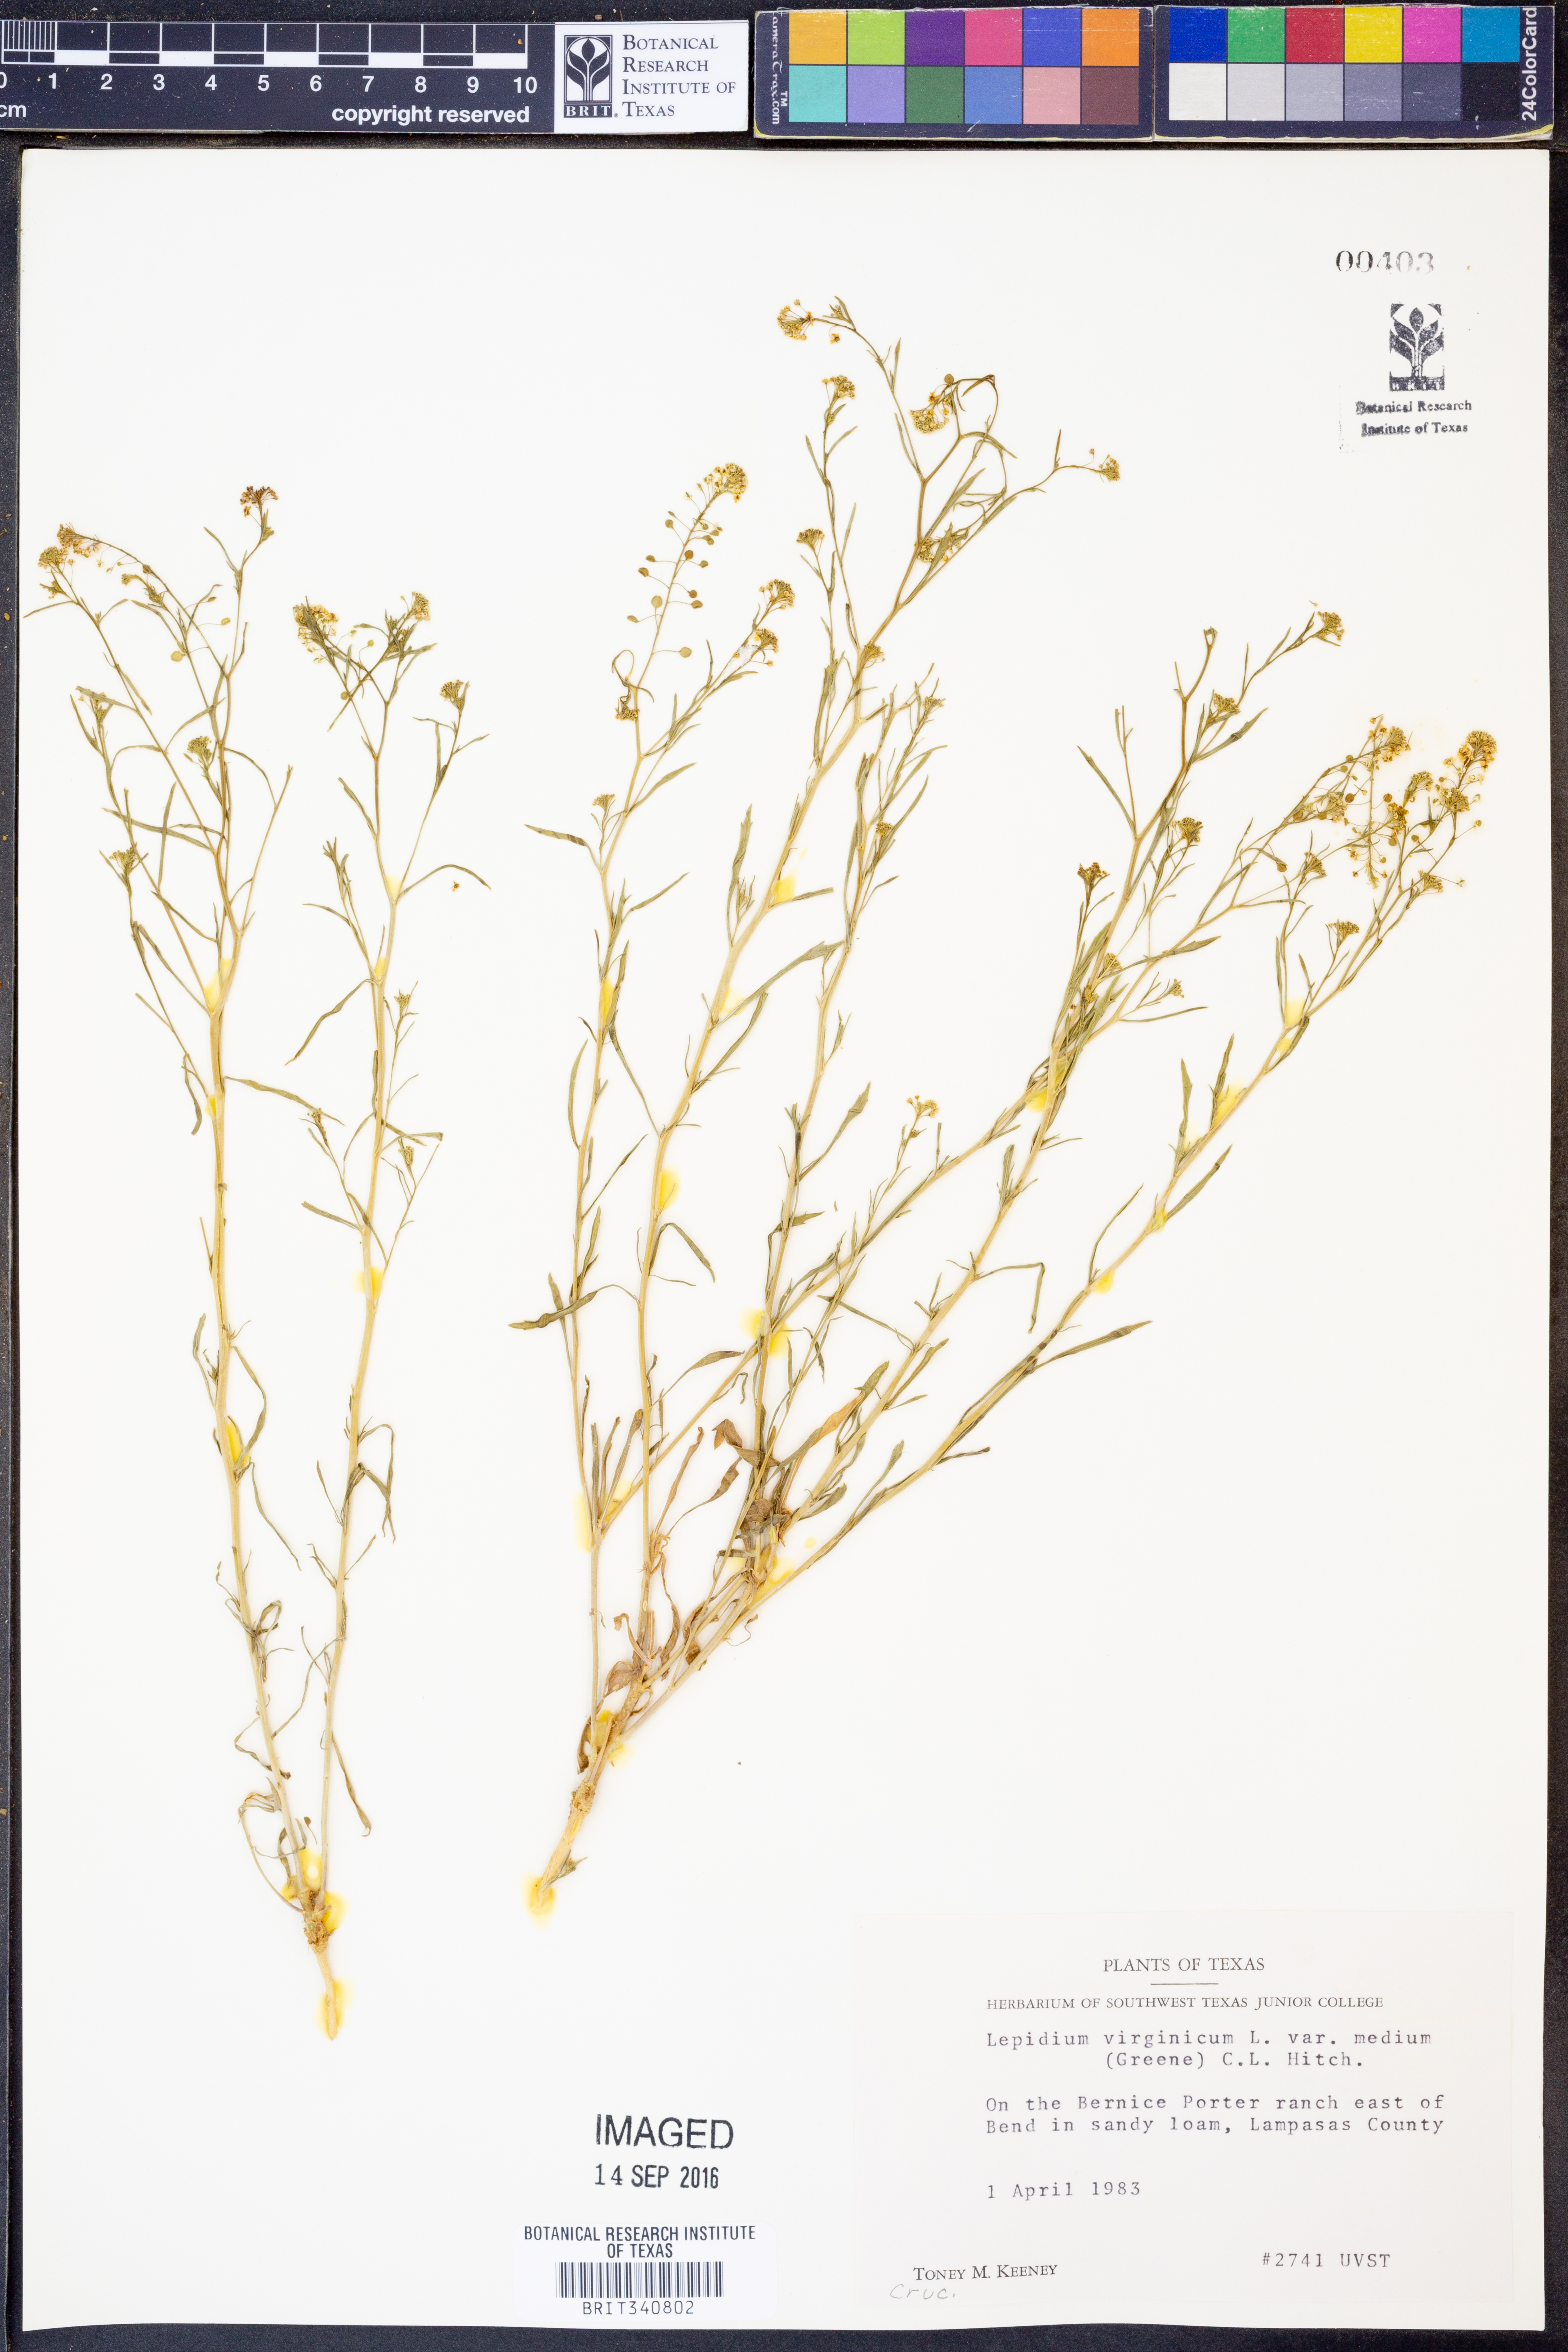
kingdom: Plantae
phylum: Tracheophyta
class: Magnoliopsida
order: Brassicales
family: Brassicaceae
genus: Lepidium
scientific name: Lepidium virginicum
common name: Least pepperwort
